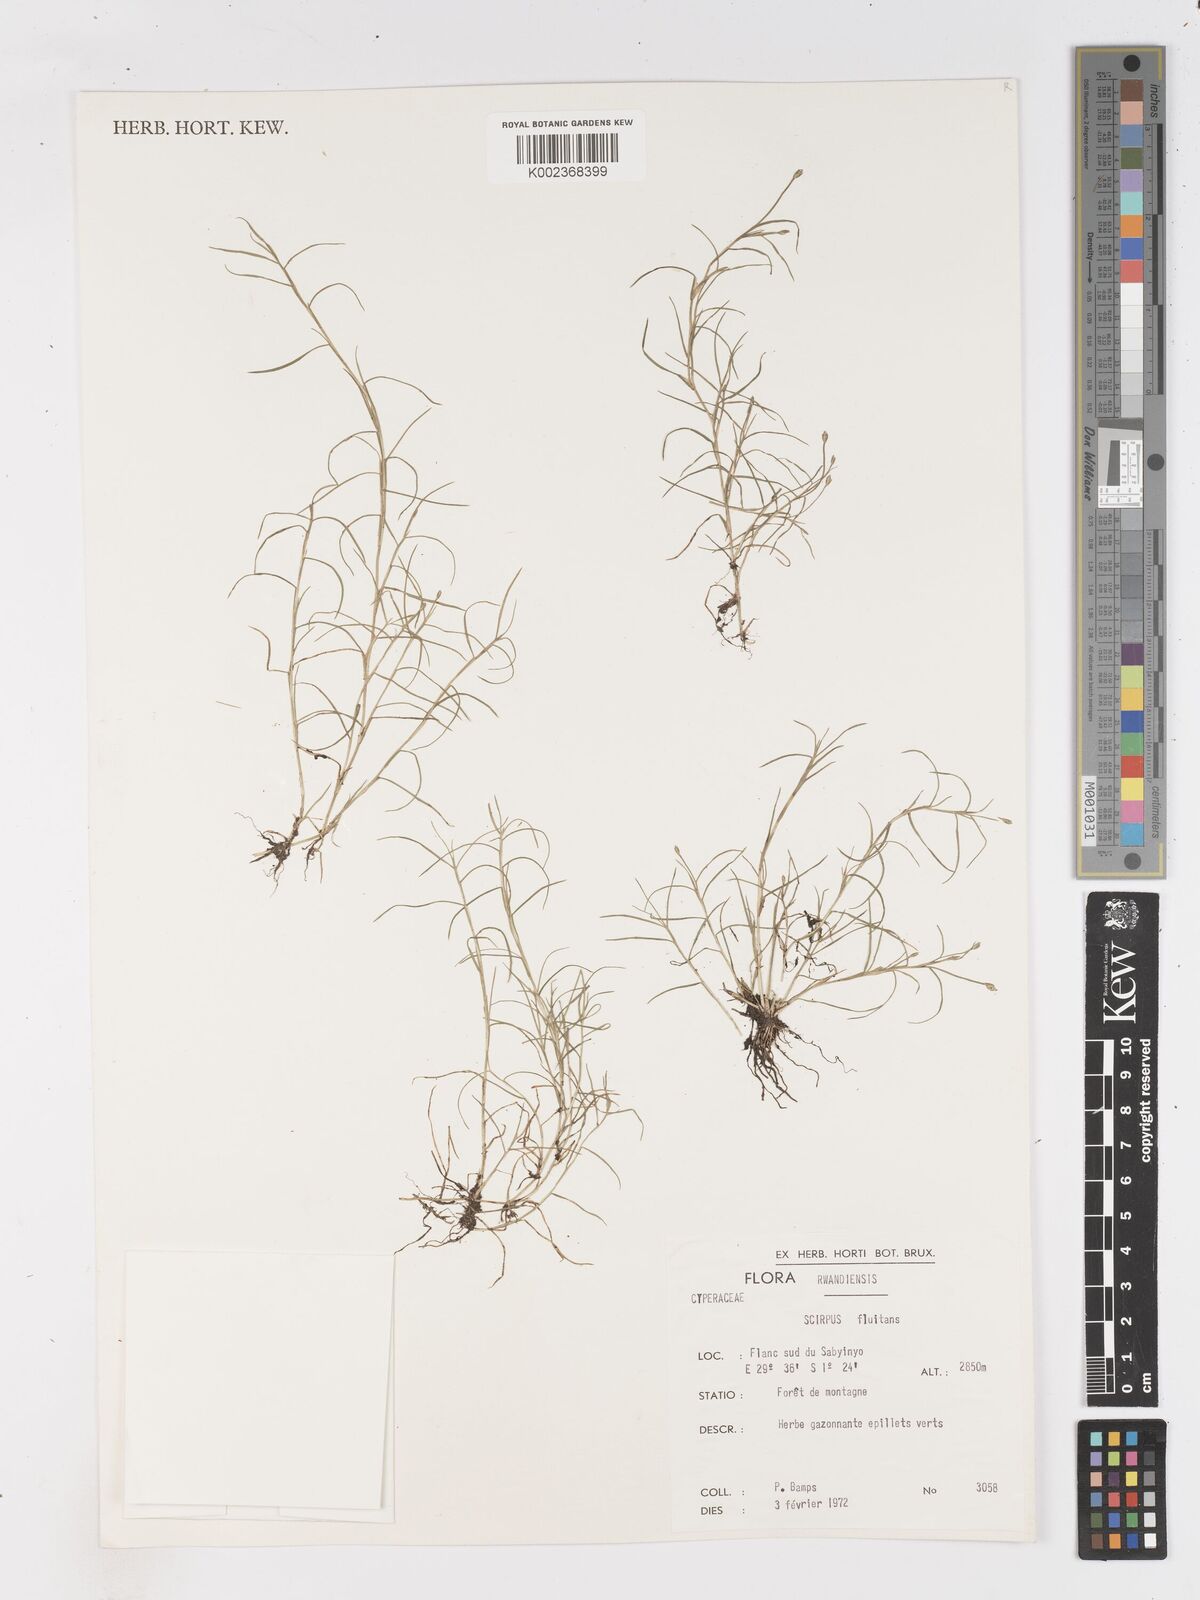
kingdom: Plantae
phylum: Tracheophyta
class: Liliopsida
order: Poales
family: Cyperaceae
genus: Isolepis
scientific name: Isolepis fluitans
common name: Floating club-rush
